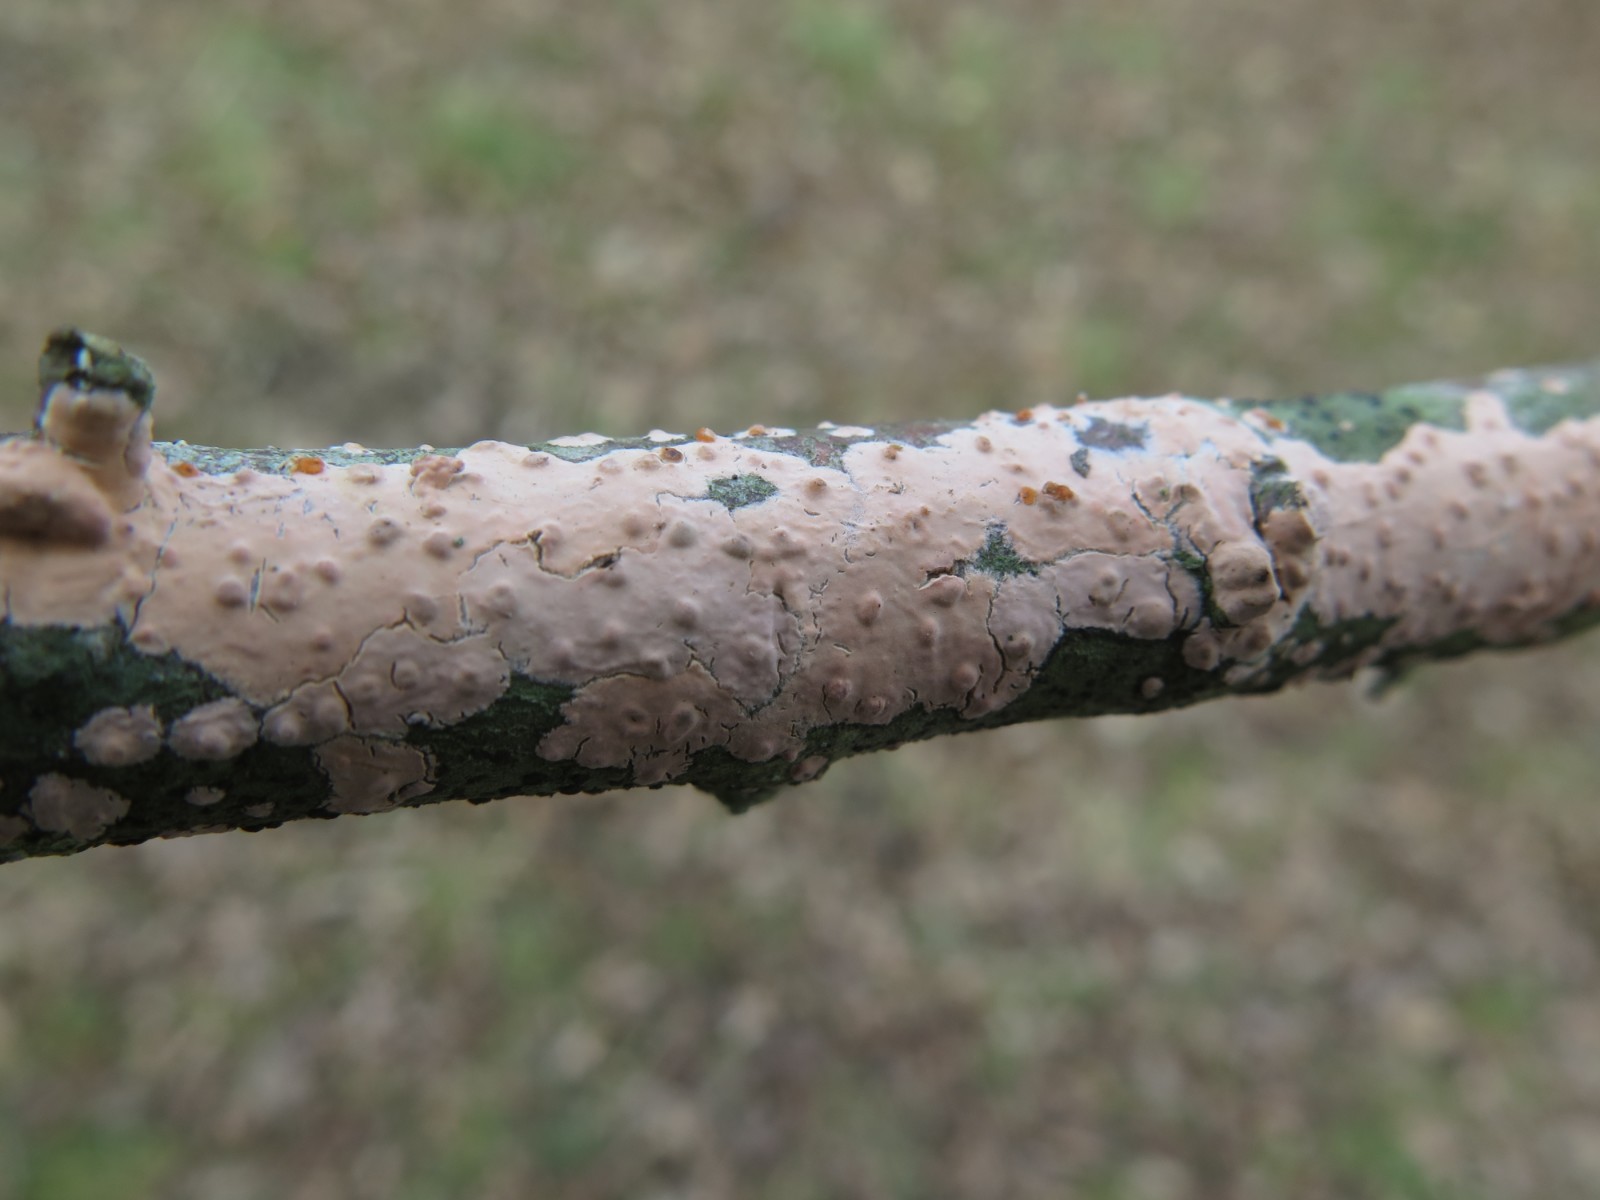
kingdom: Fungi
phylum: Basidiomycota
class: Agaricomycetes
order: Russulales
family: Peniophoraceae
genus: Peniophora
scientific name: Peniophora incarnata
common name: laksefarvet voksskind
